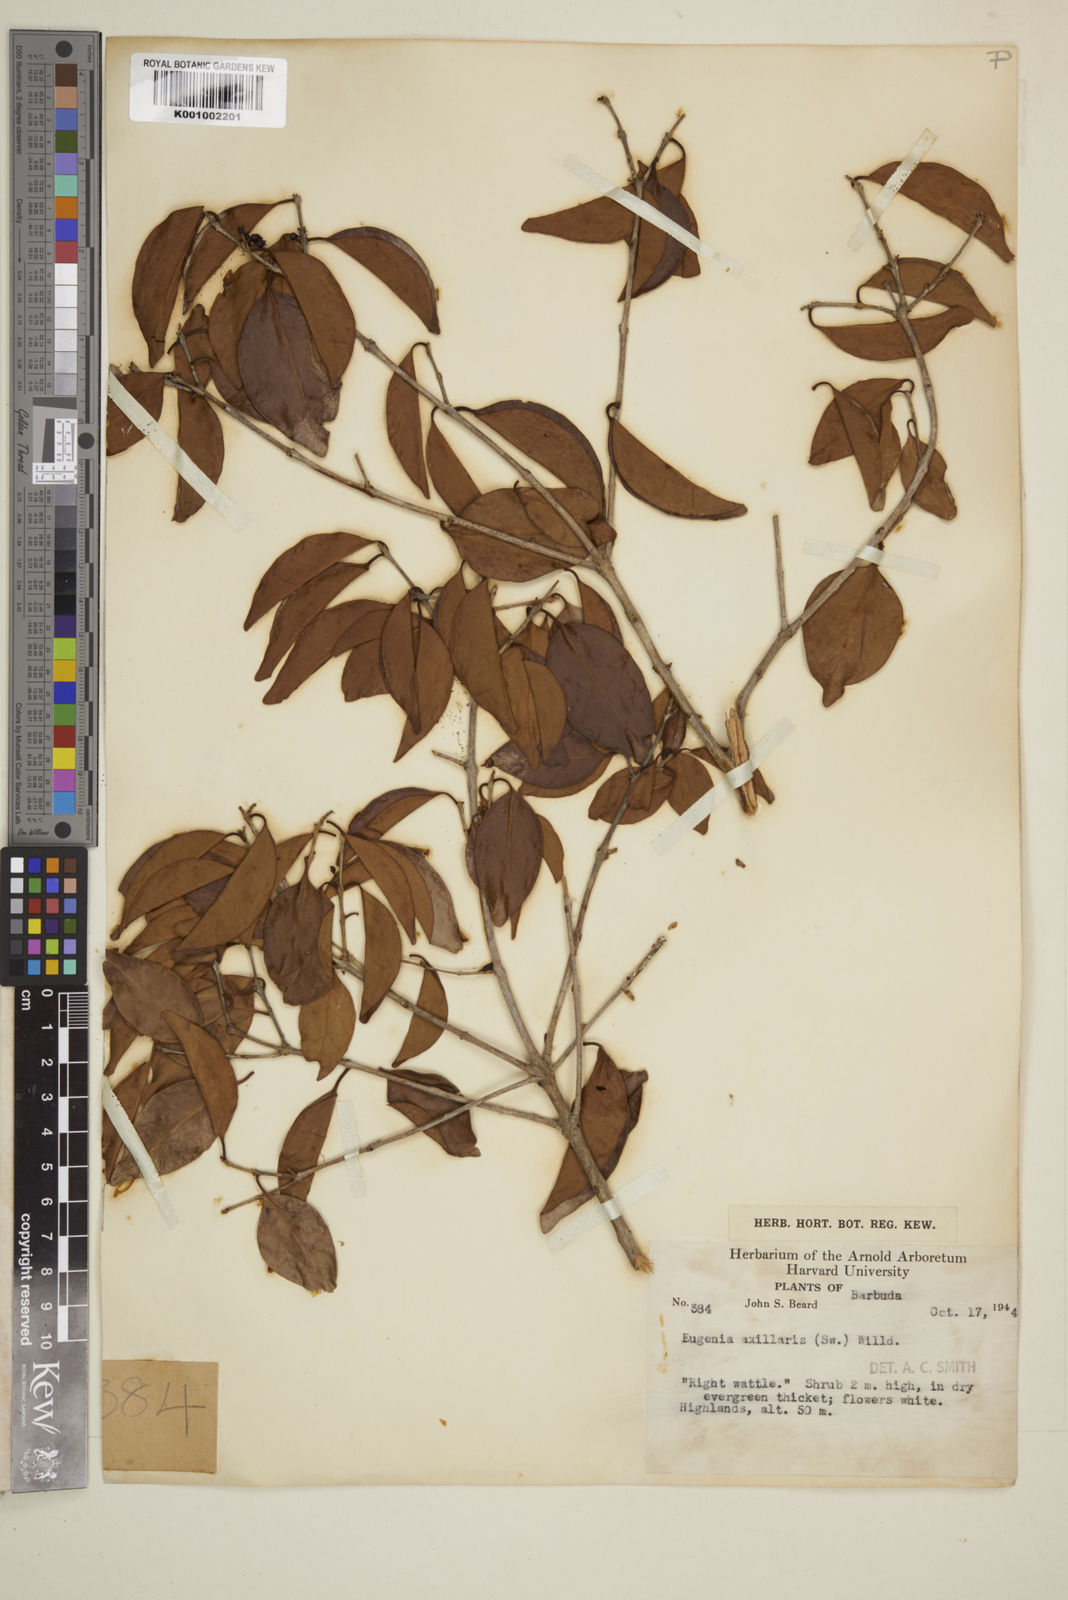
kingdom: Plantae
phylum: Tracheophyta
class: Magnoliopsida
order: Myrtales
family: Myrtaceae
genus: Eugenia
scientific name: Eugenia axillaris
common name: Choaky berry
